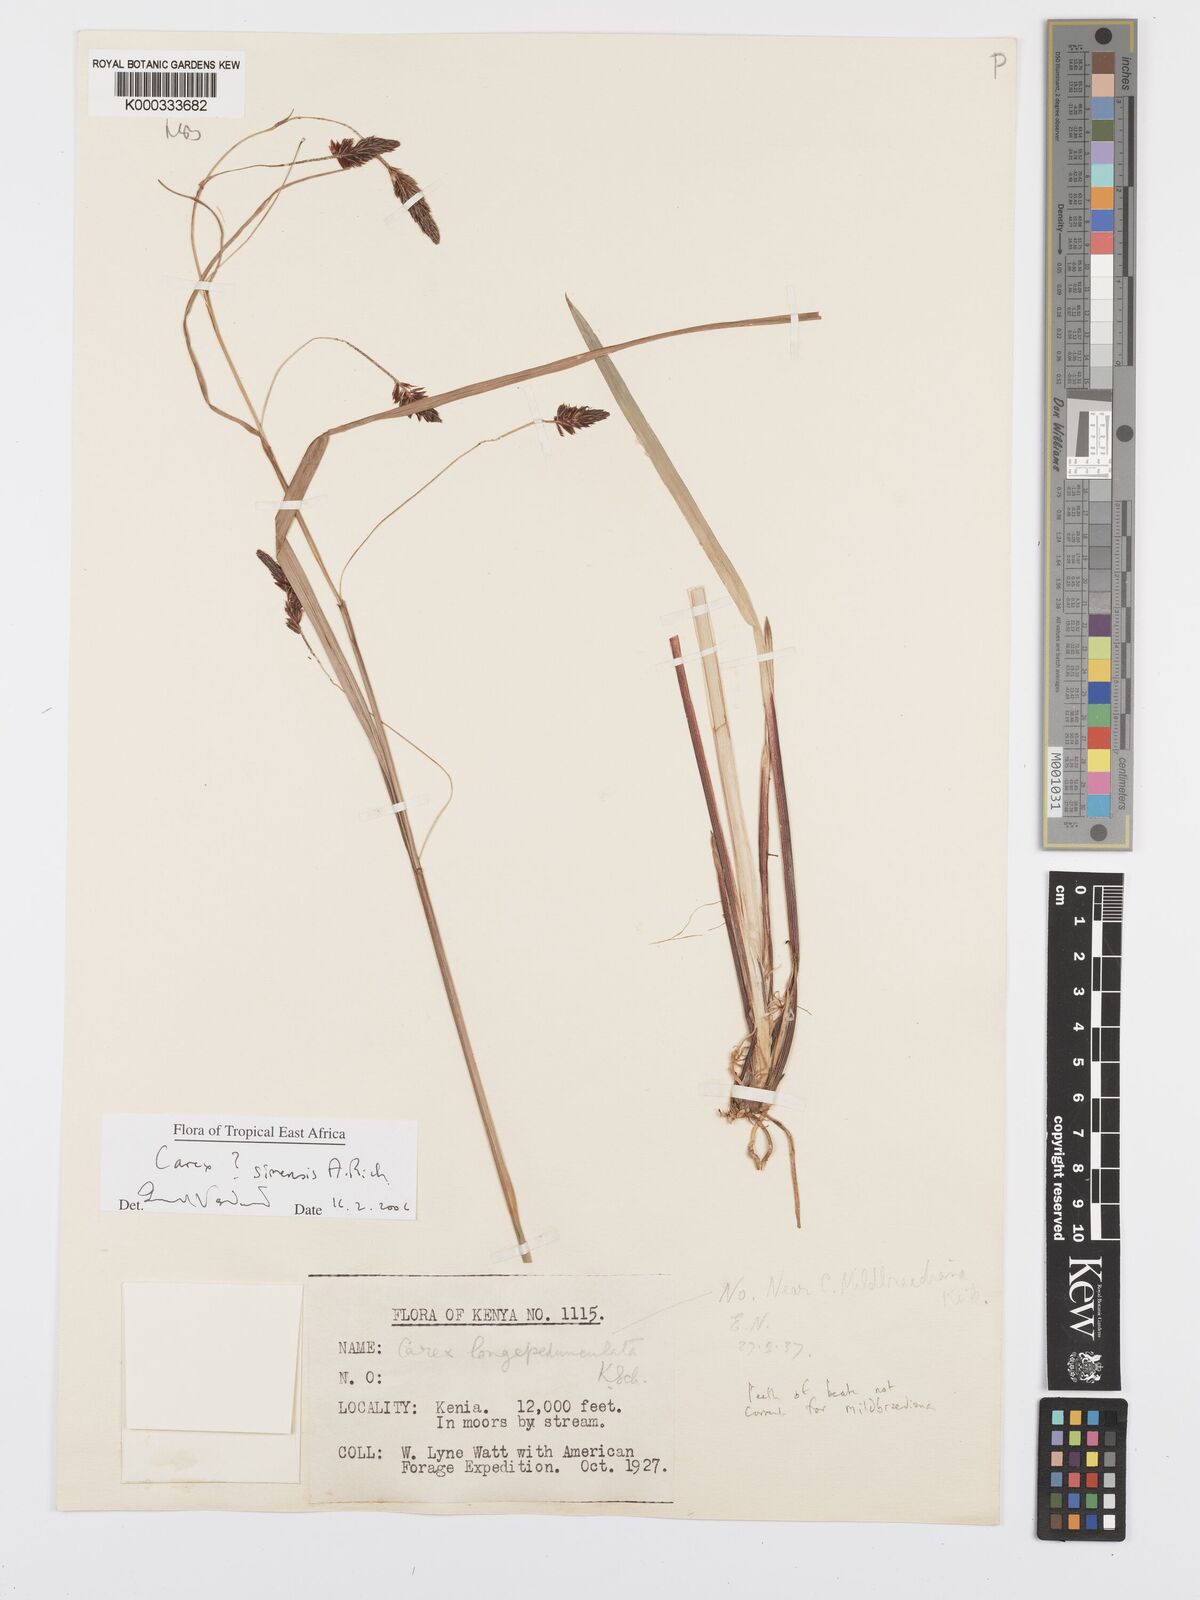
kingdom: Plantae
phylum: Tracheophyta
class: Liliopsida
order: Poales
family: Cyperaceae
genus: Carex
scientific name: Carex simensis
